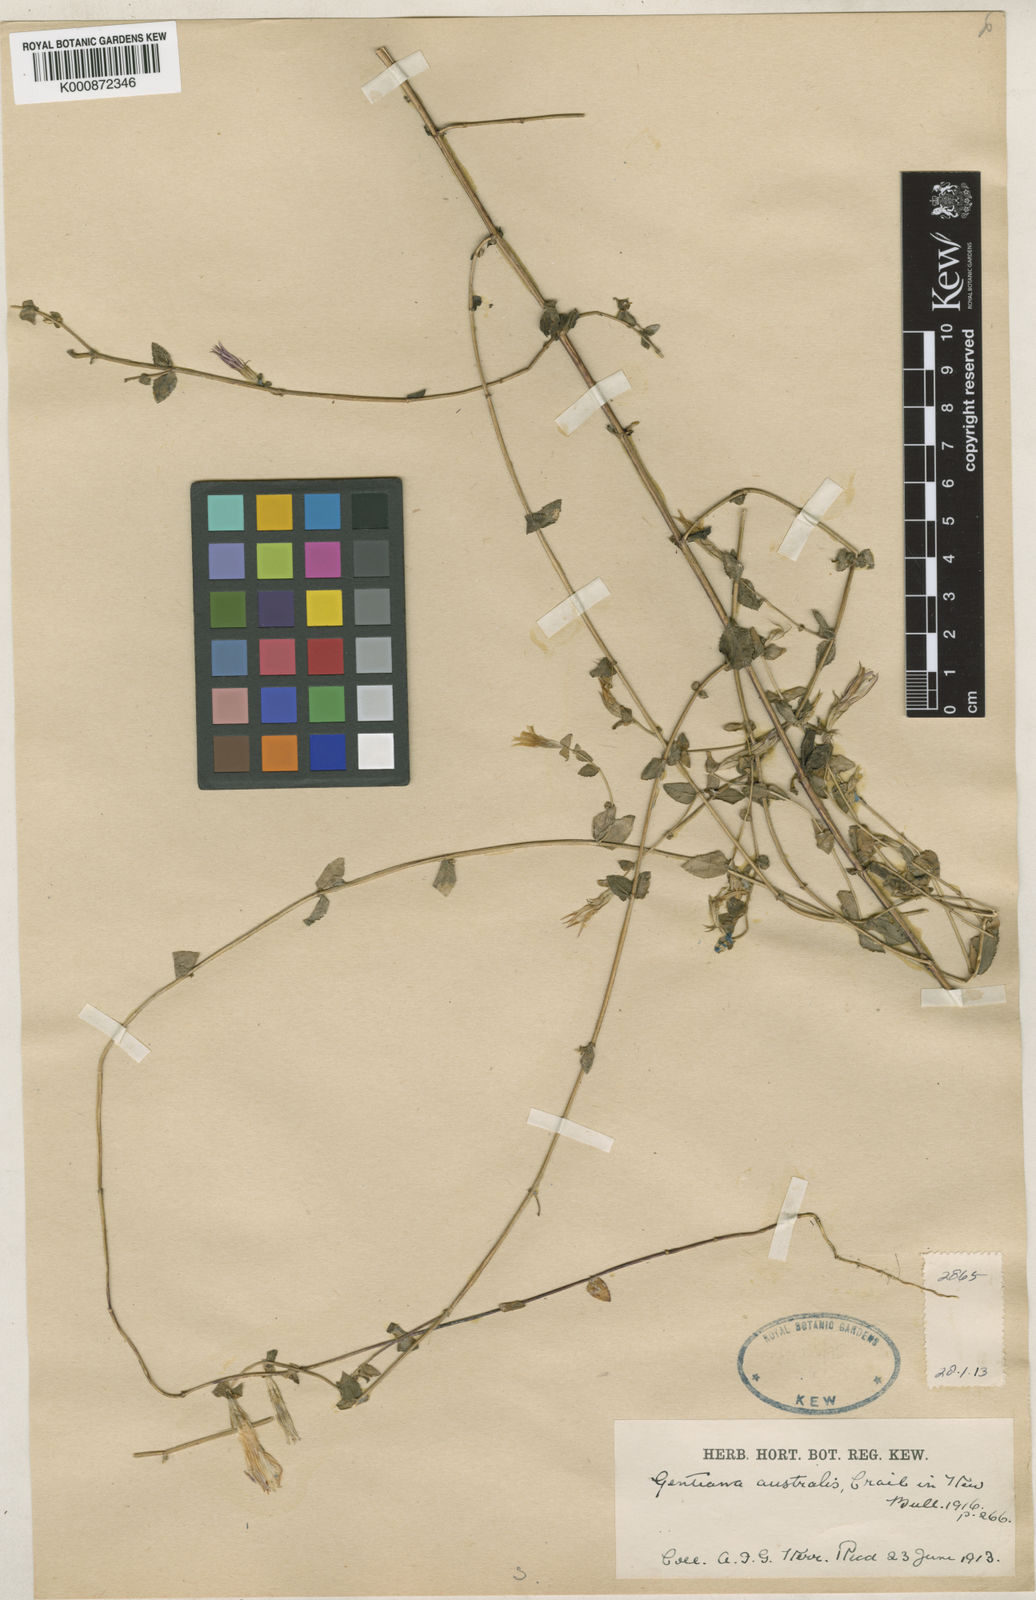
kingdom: Plantae
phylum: Tracheophyta
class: Magnoliopsida
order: Gentianales
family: Gentianaceae
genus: Metagentiana
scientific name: Metagentiana australis
